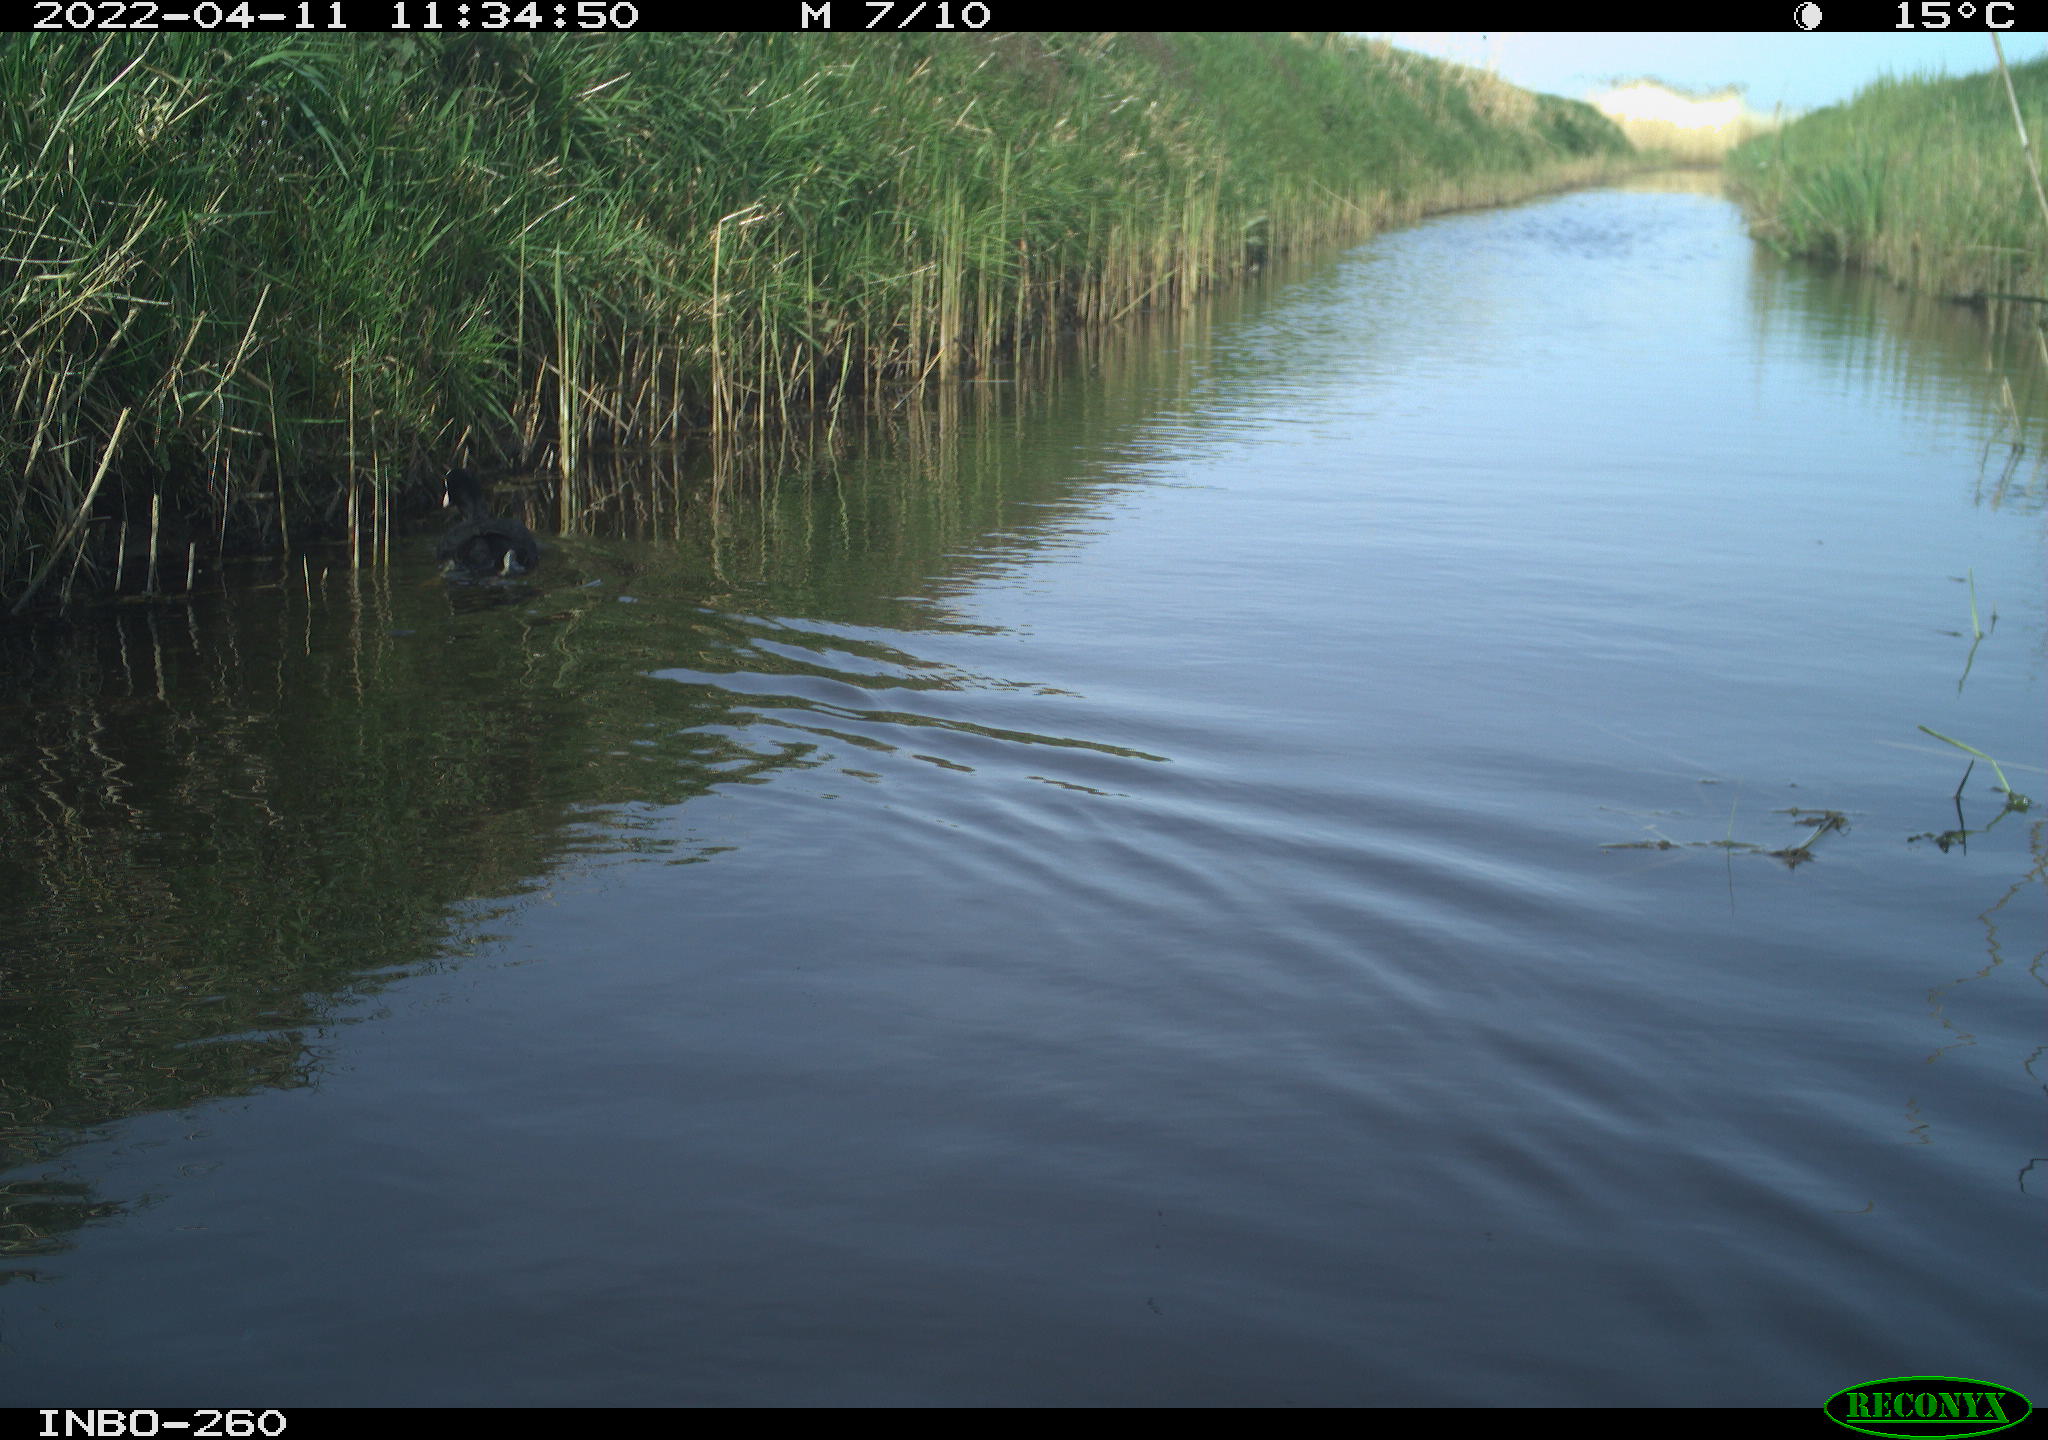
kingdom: Animalia
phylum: Chordata
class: Aves
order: Gruiformes
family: Rallidae
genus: Fulica
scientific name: Fulica atra
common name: Eurasian coot
